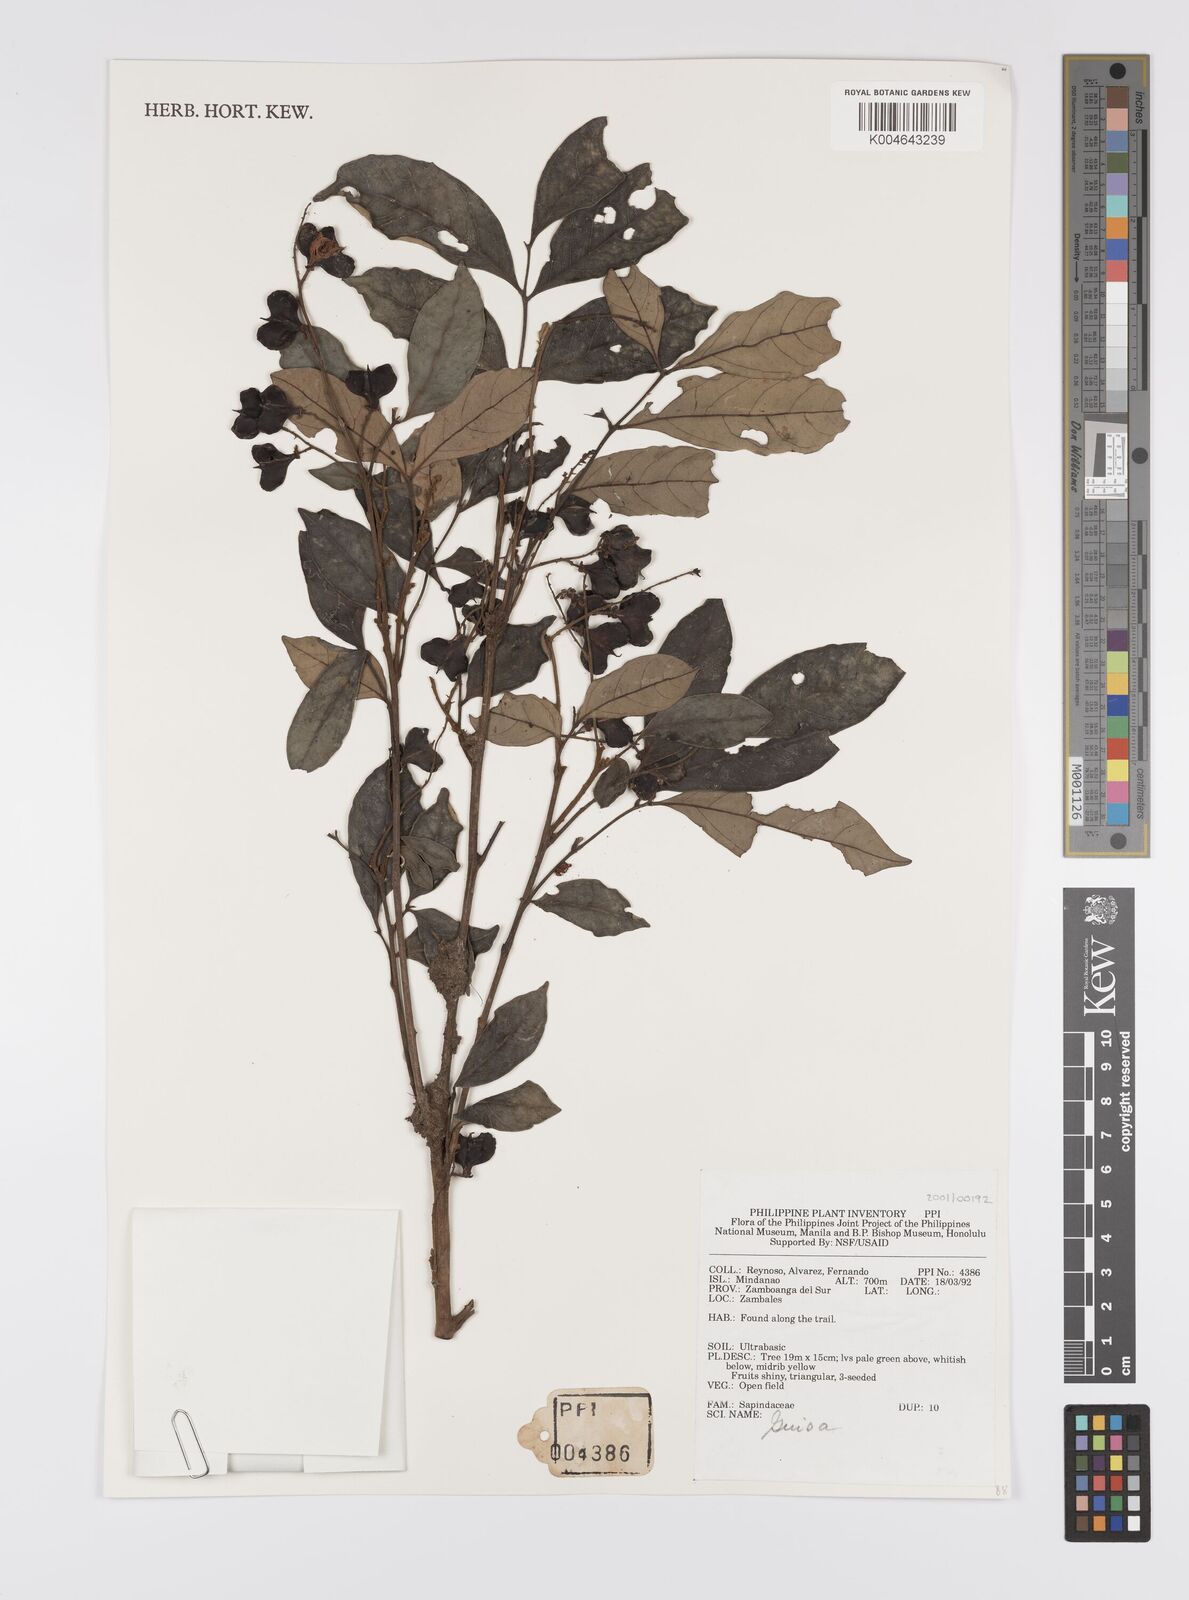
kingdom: Plantae
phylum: Tracheophyta
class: Magnoliopsida
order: Sapindales
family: Sapindaceae
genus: Guioa
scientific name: Guioa
